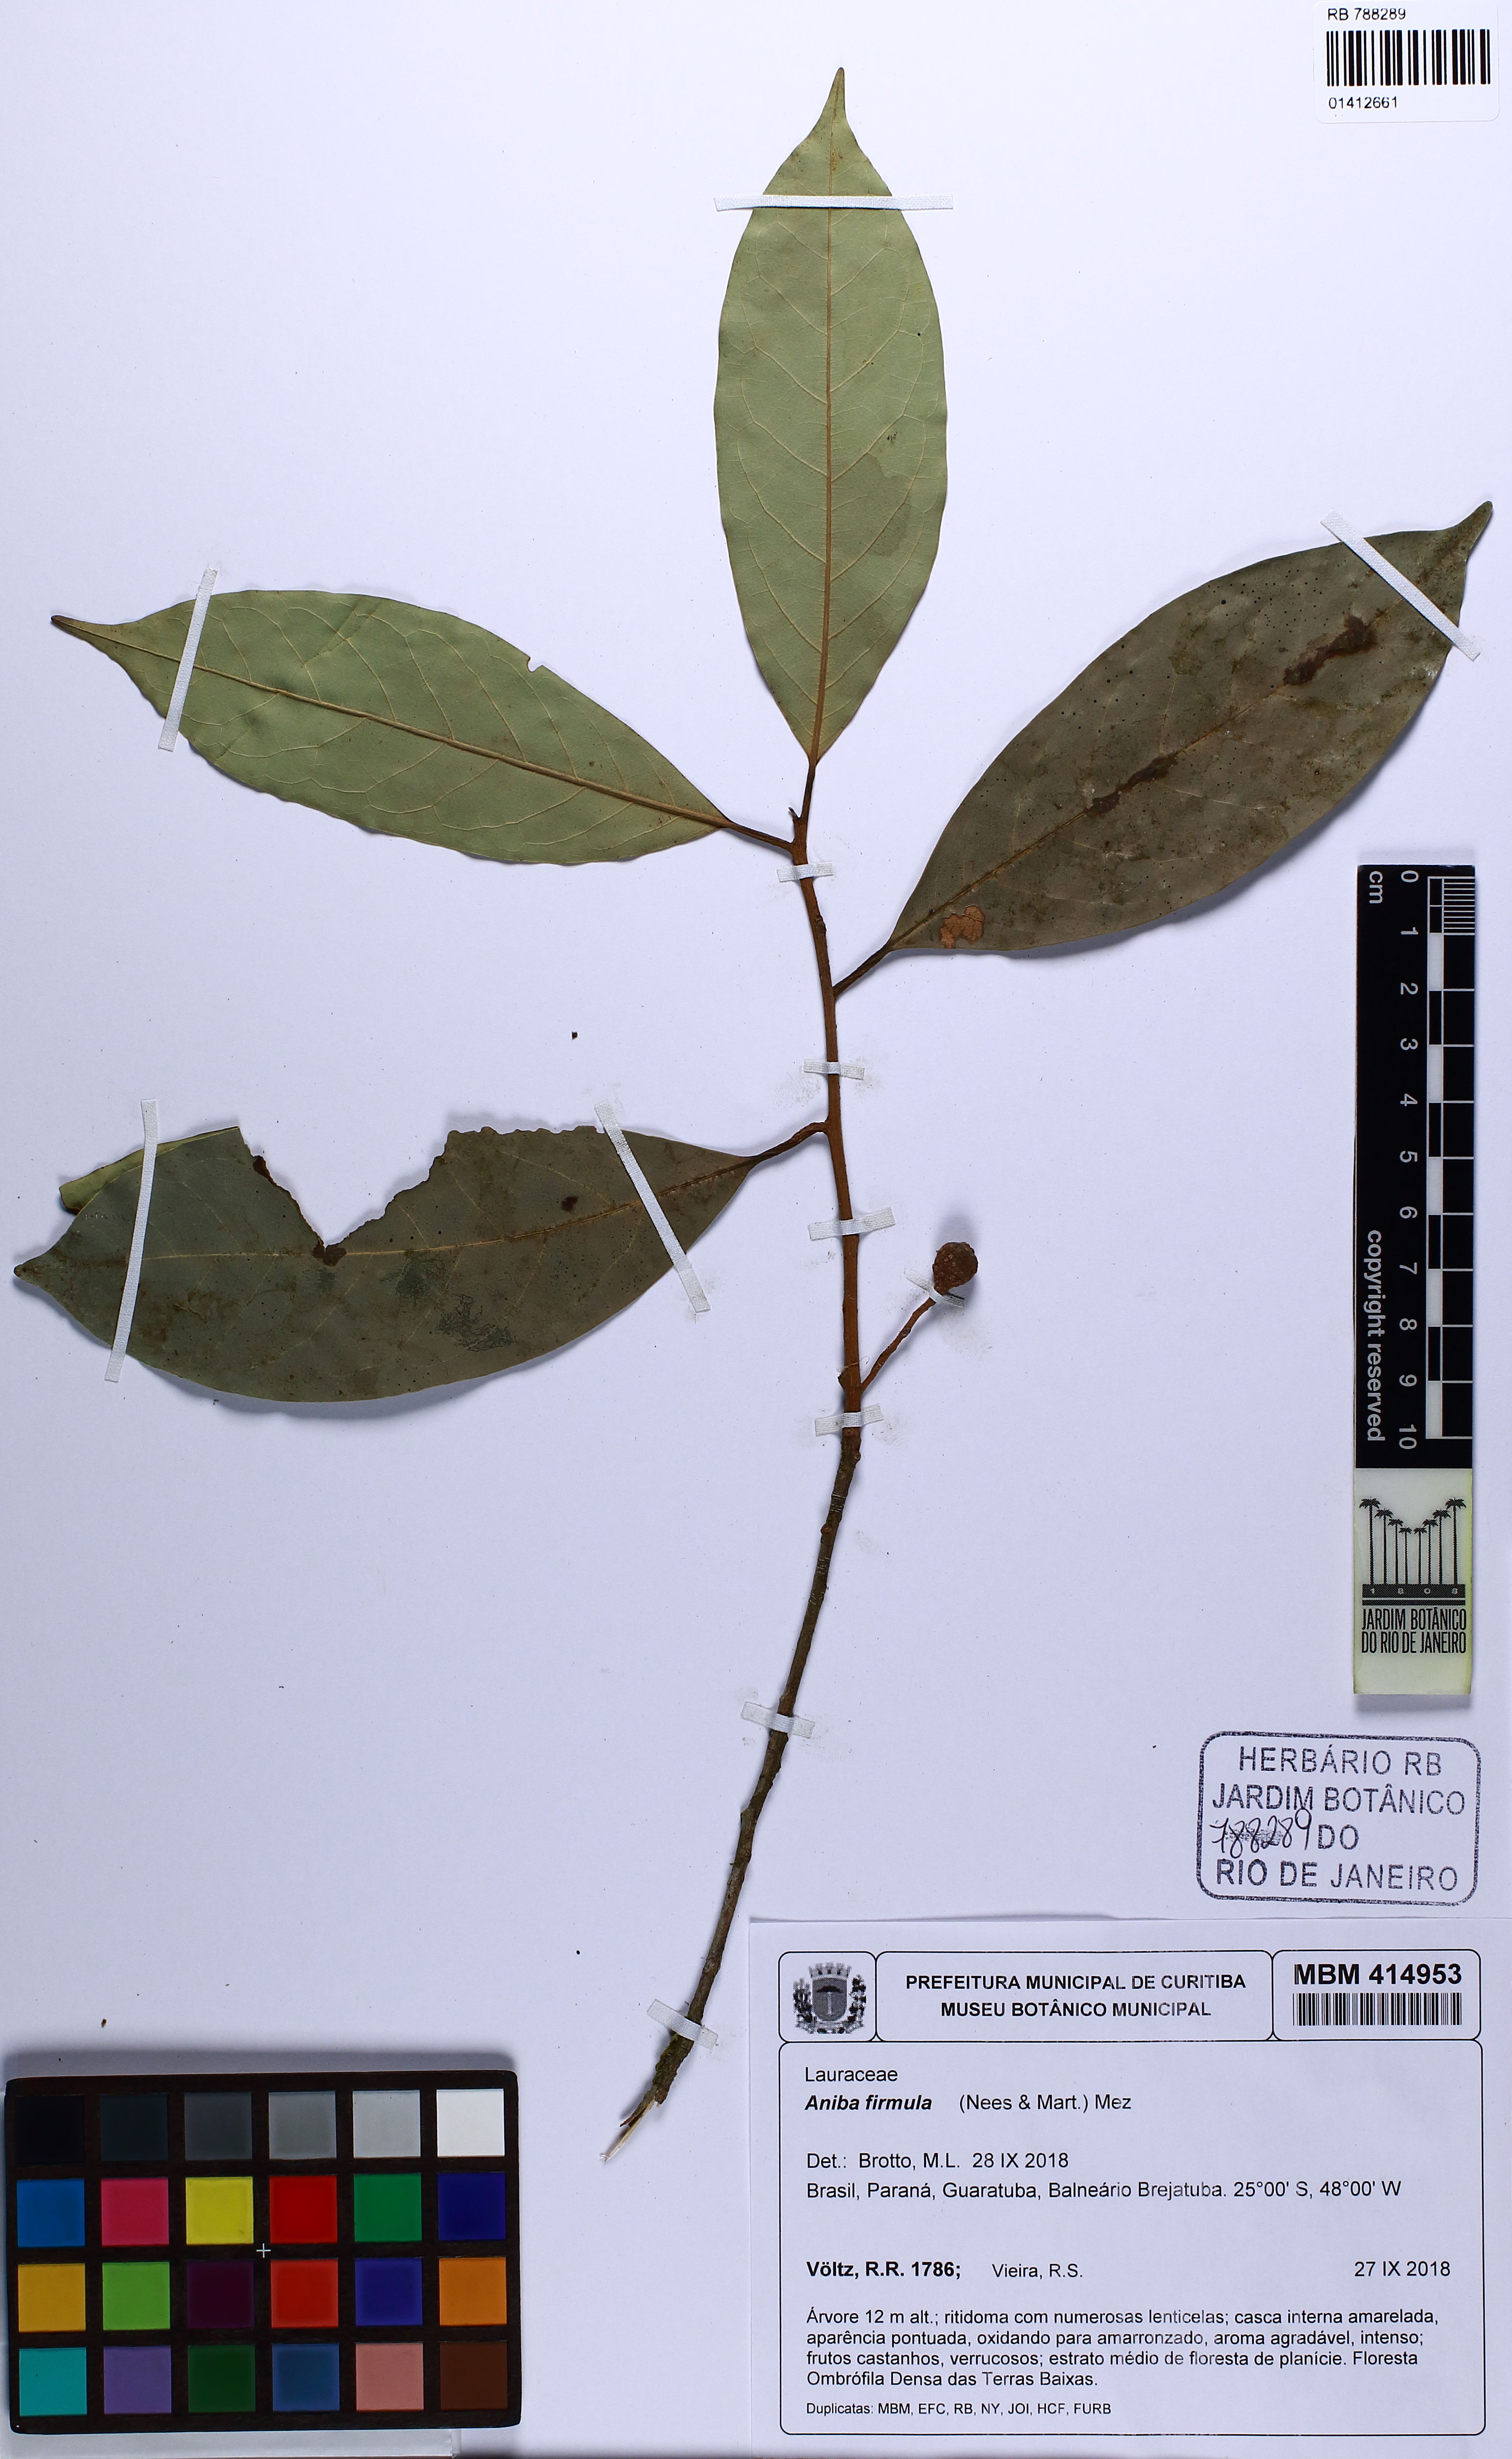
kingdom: Plantae
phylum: Tracheophyta
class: Magnoliopsida
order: Laurales
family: Lauraceae
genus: Aniba
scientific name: Aniba firmula
